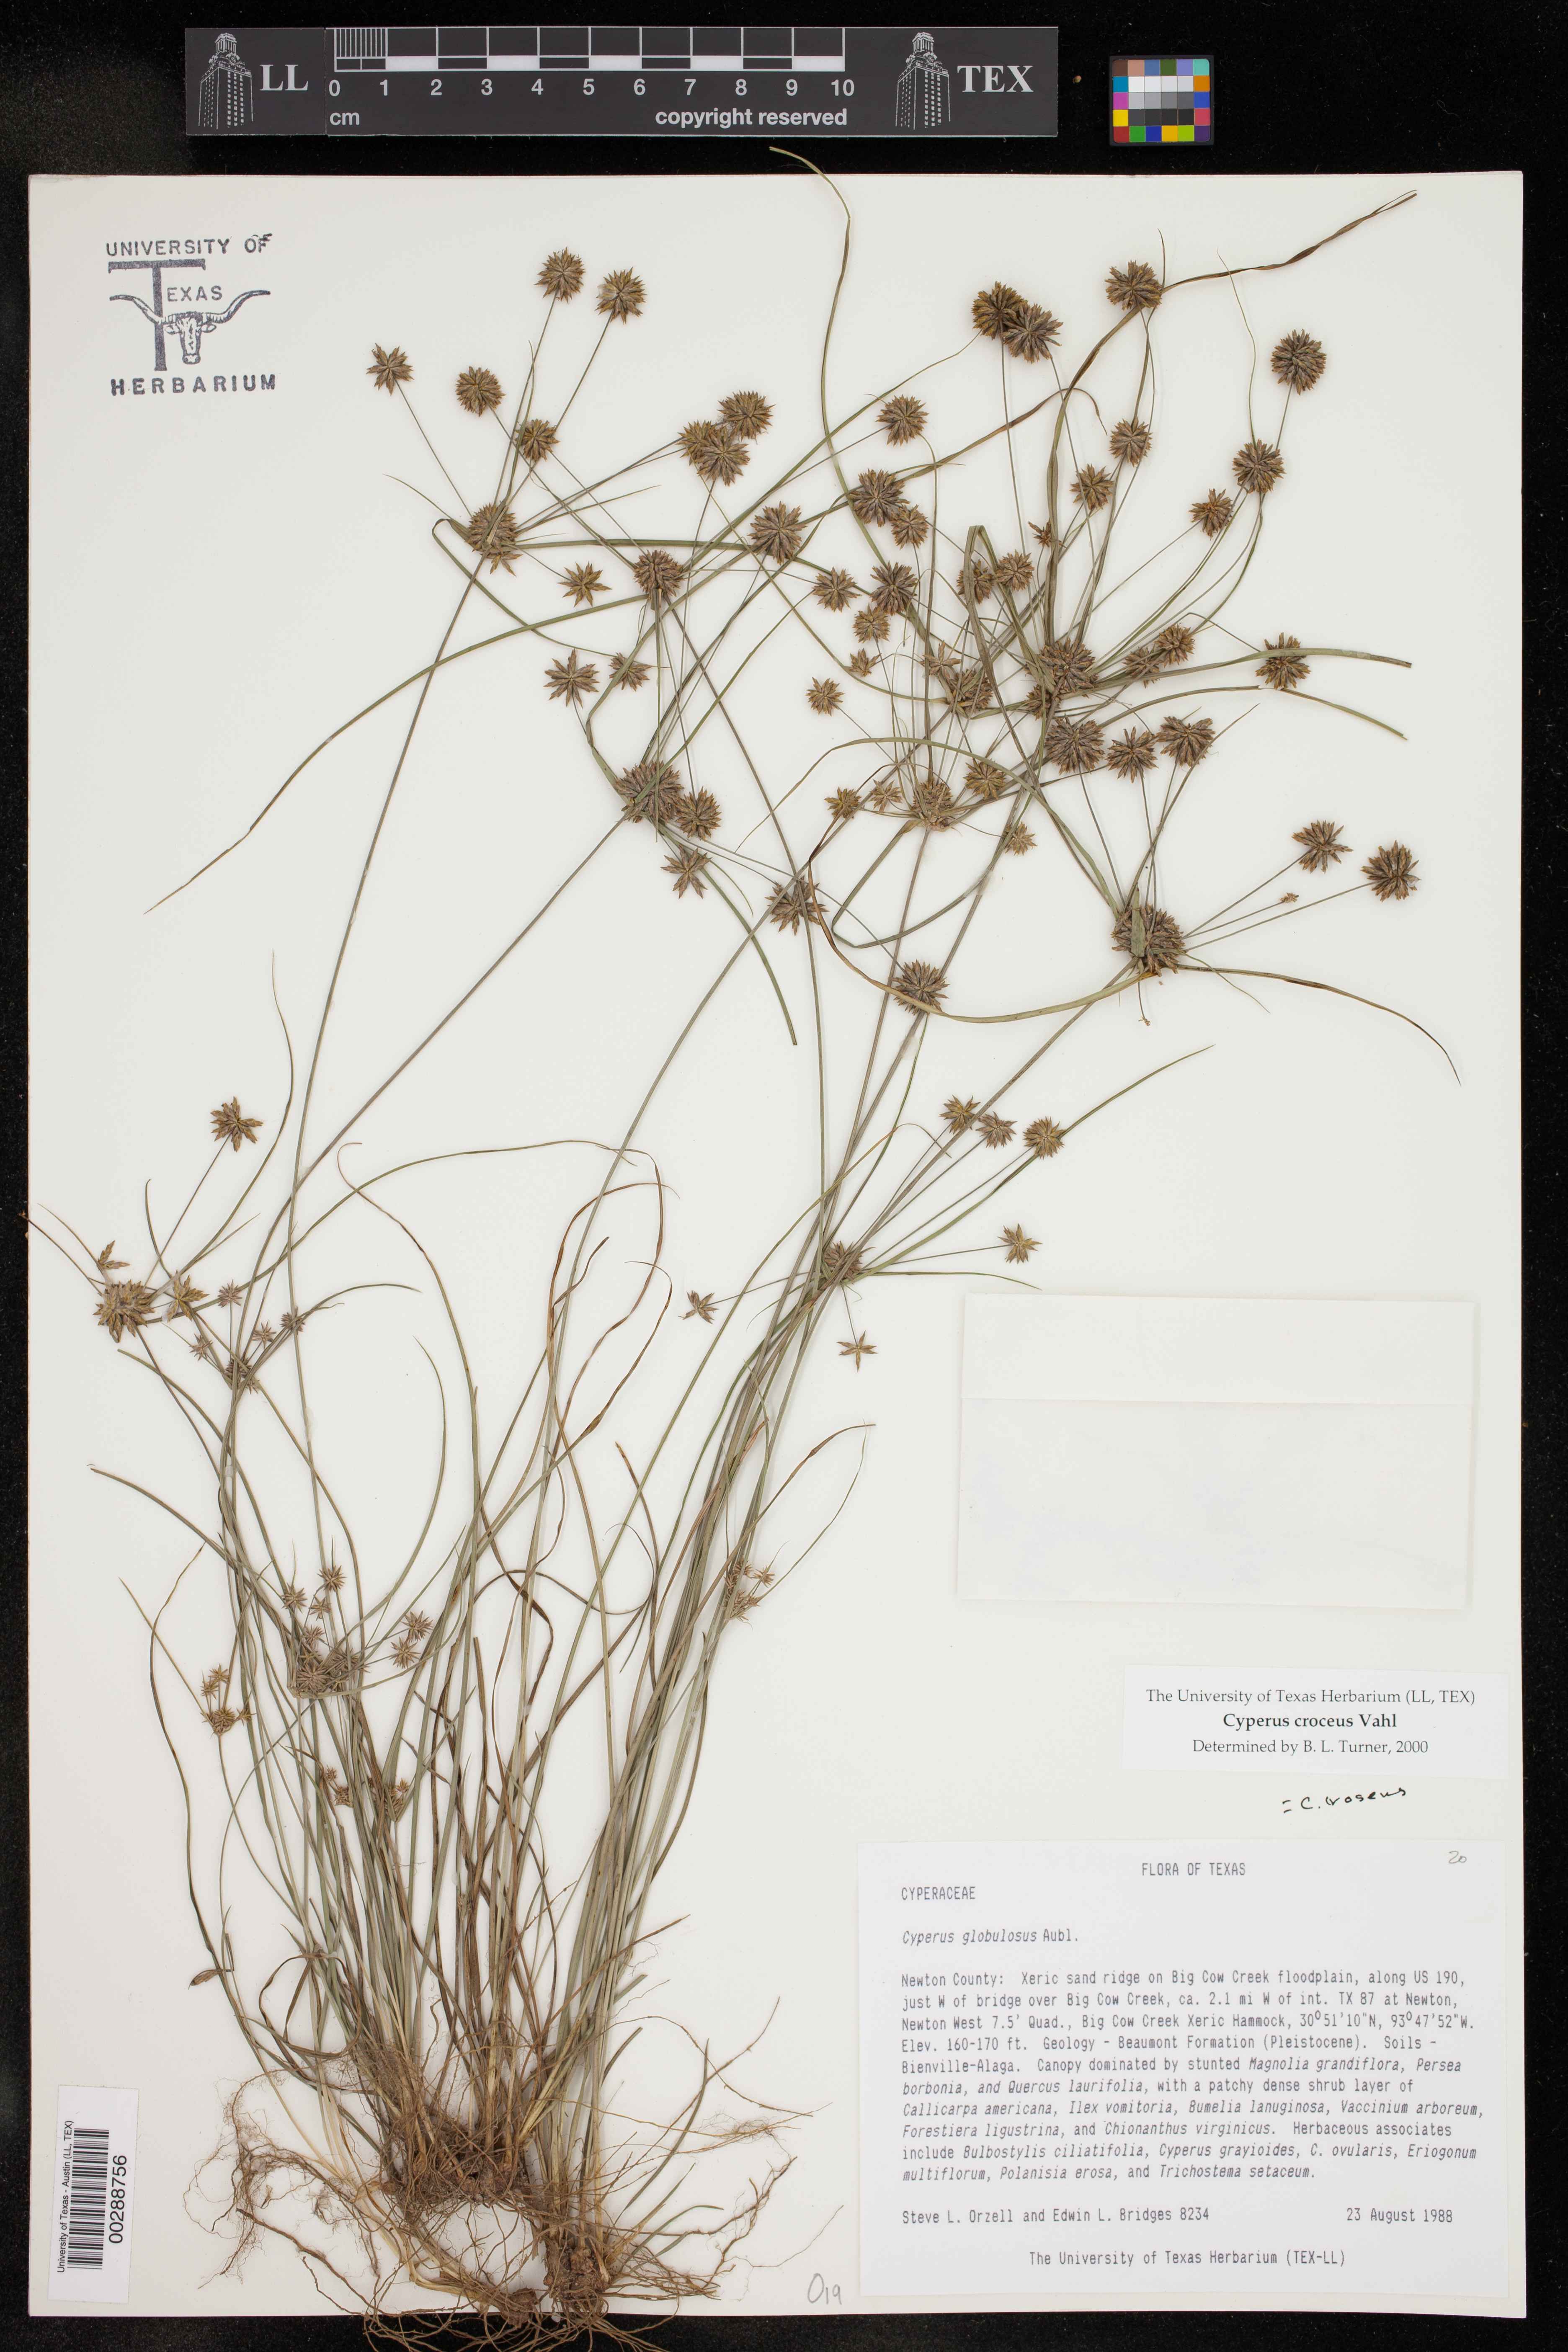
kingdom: Plantae
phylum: Tracheophyta
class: Liliopsida
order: Poales
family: Cyperaceae
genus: Cyperus
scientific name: Cyperus croceus
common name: Baldwin's flatsedge
